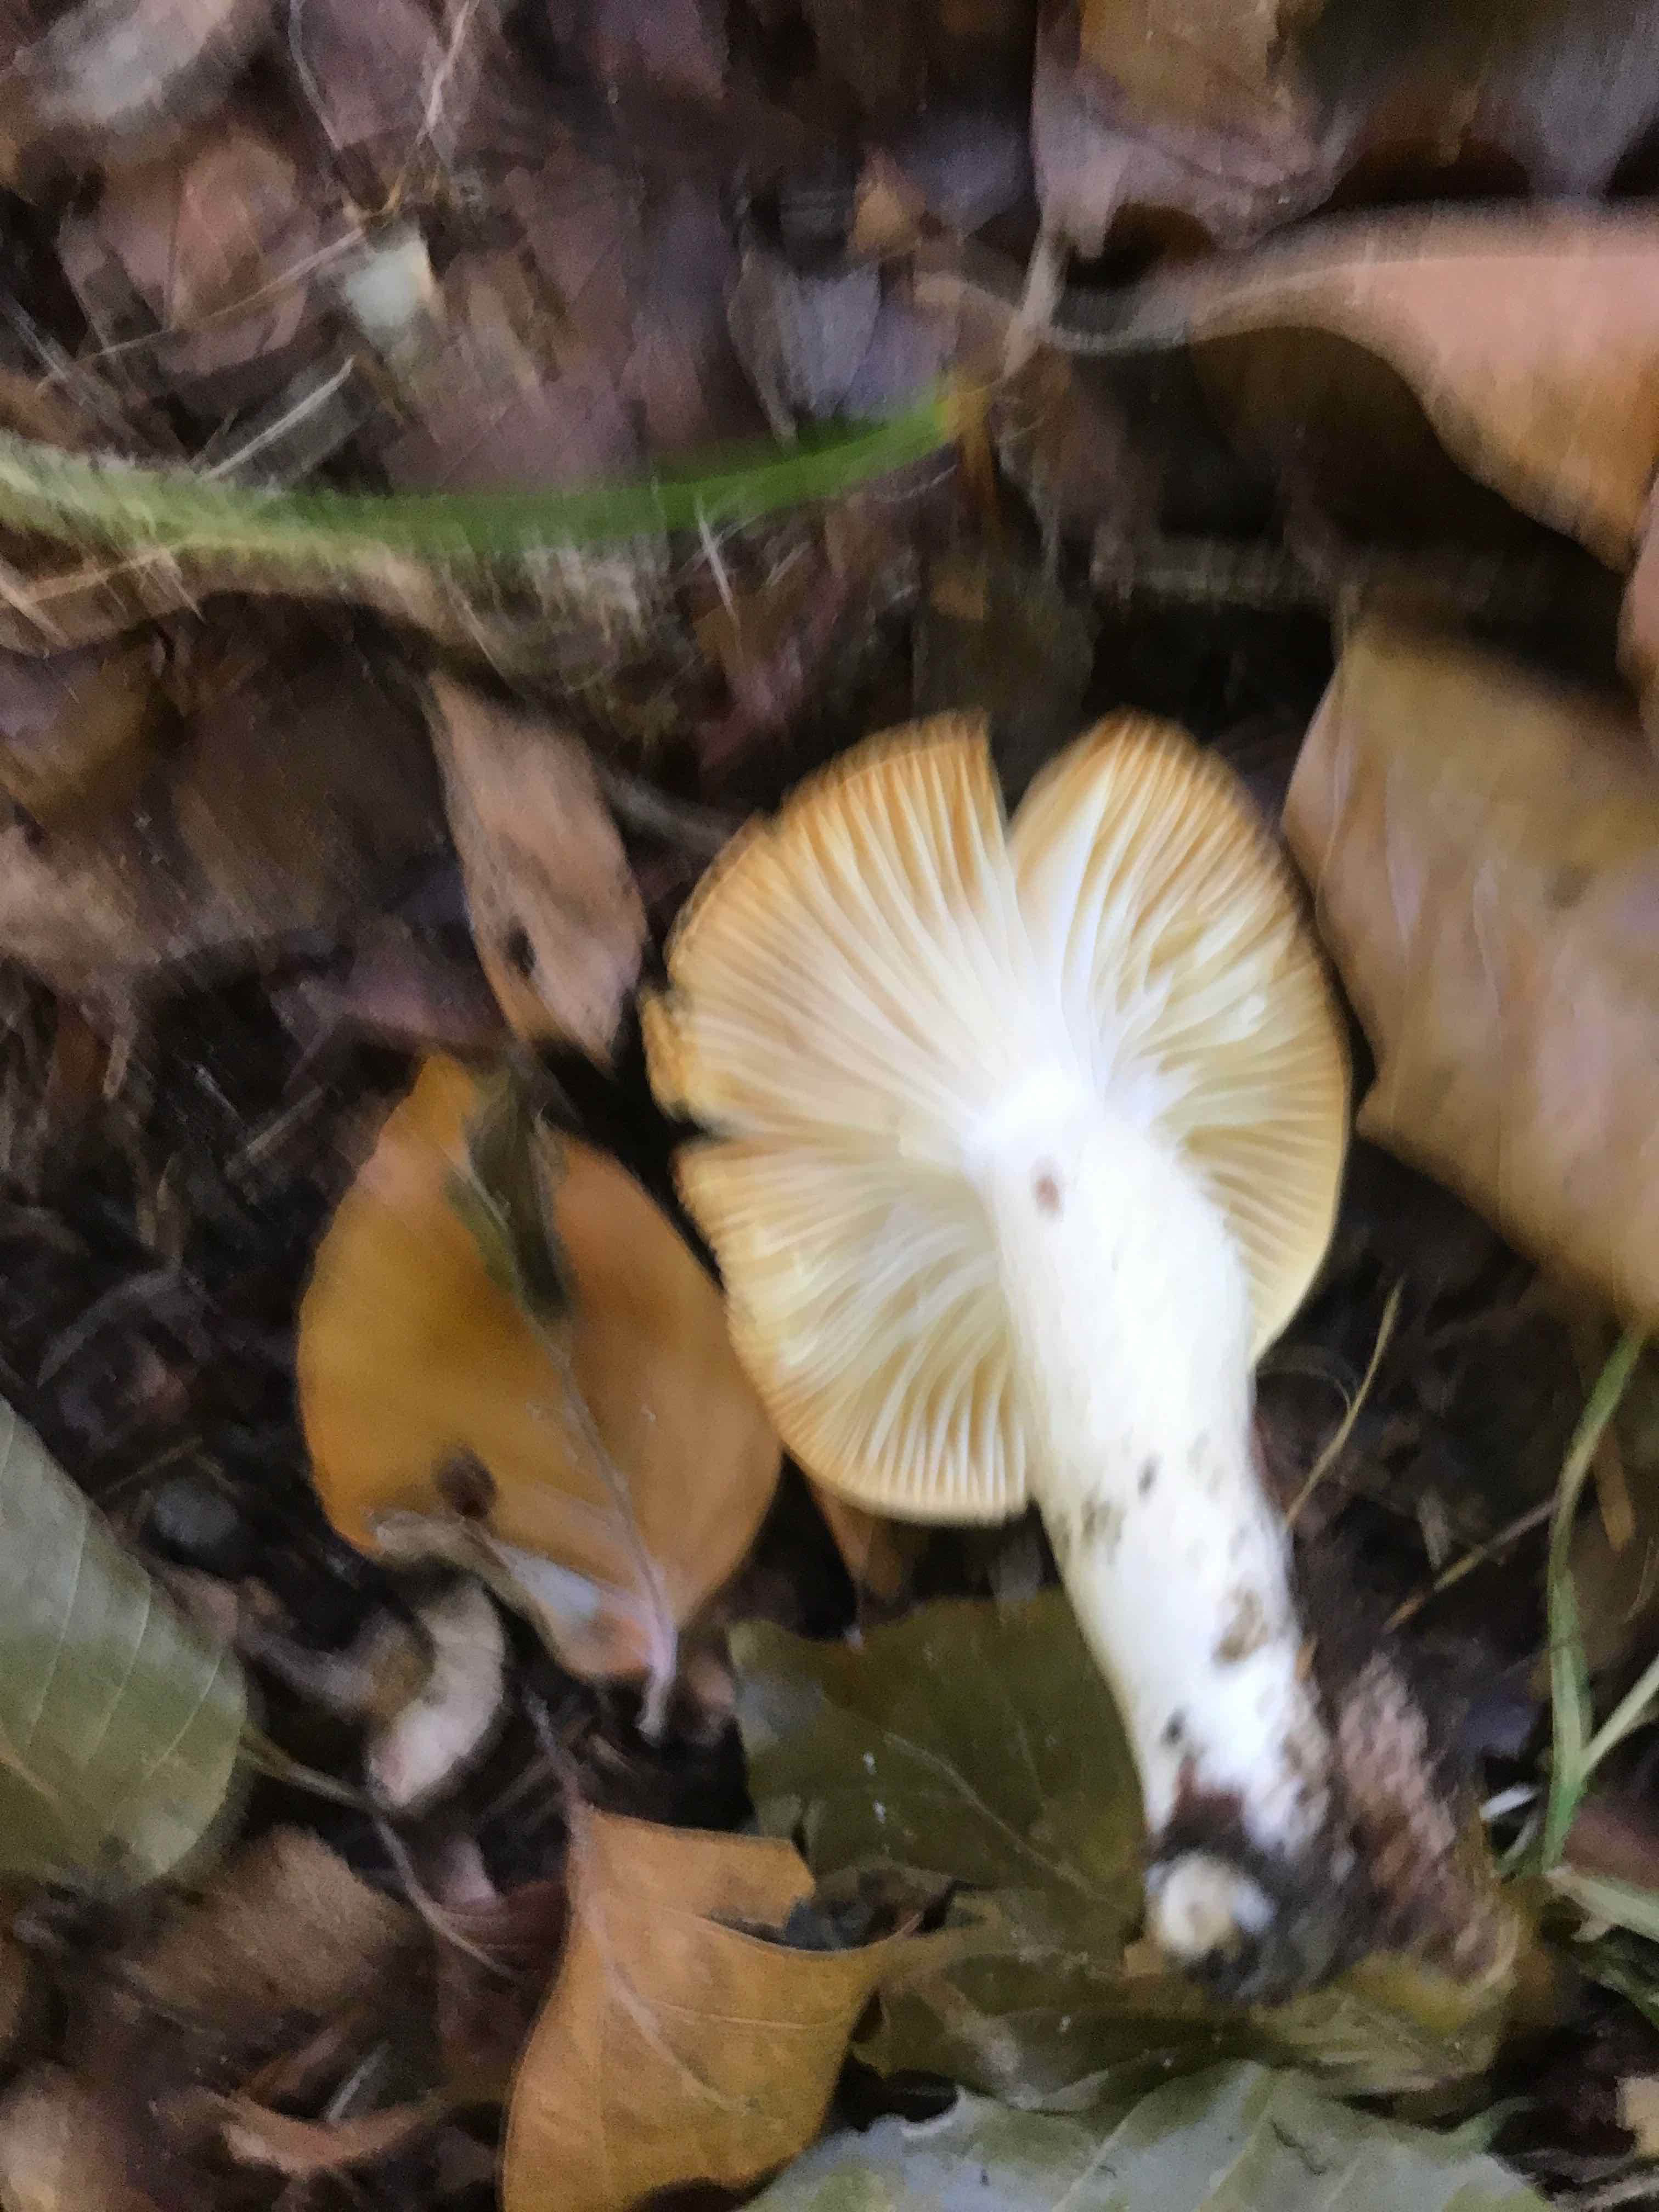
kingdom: Fungi
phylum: Basidiomycota
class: Agaricomycetes
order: Agaricales
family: Hygrophoraceae
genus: Hygrophorus
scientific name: Hygrophorus discoxanthus
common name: ildelugtende sneglehat
